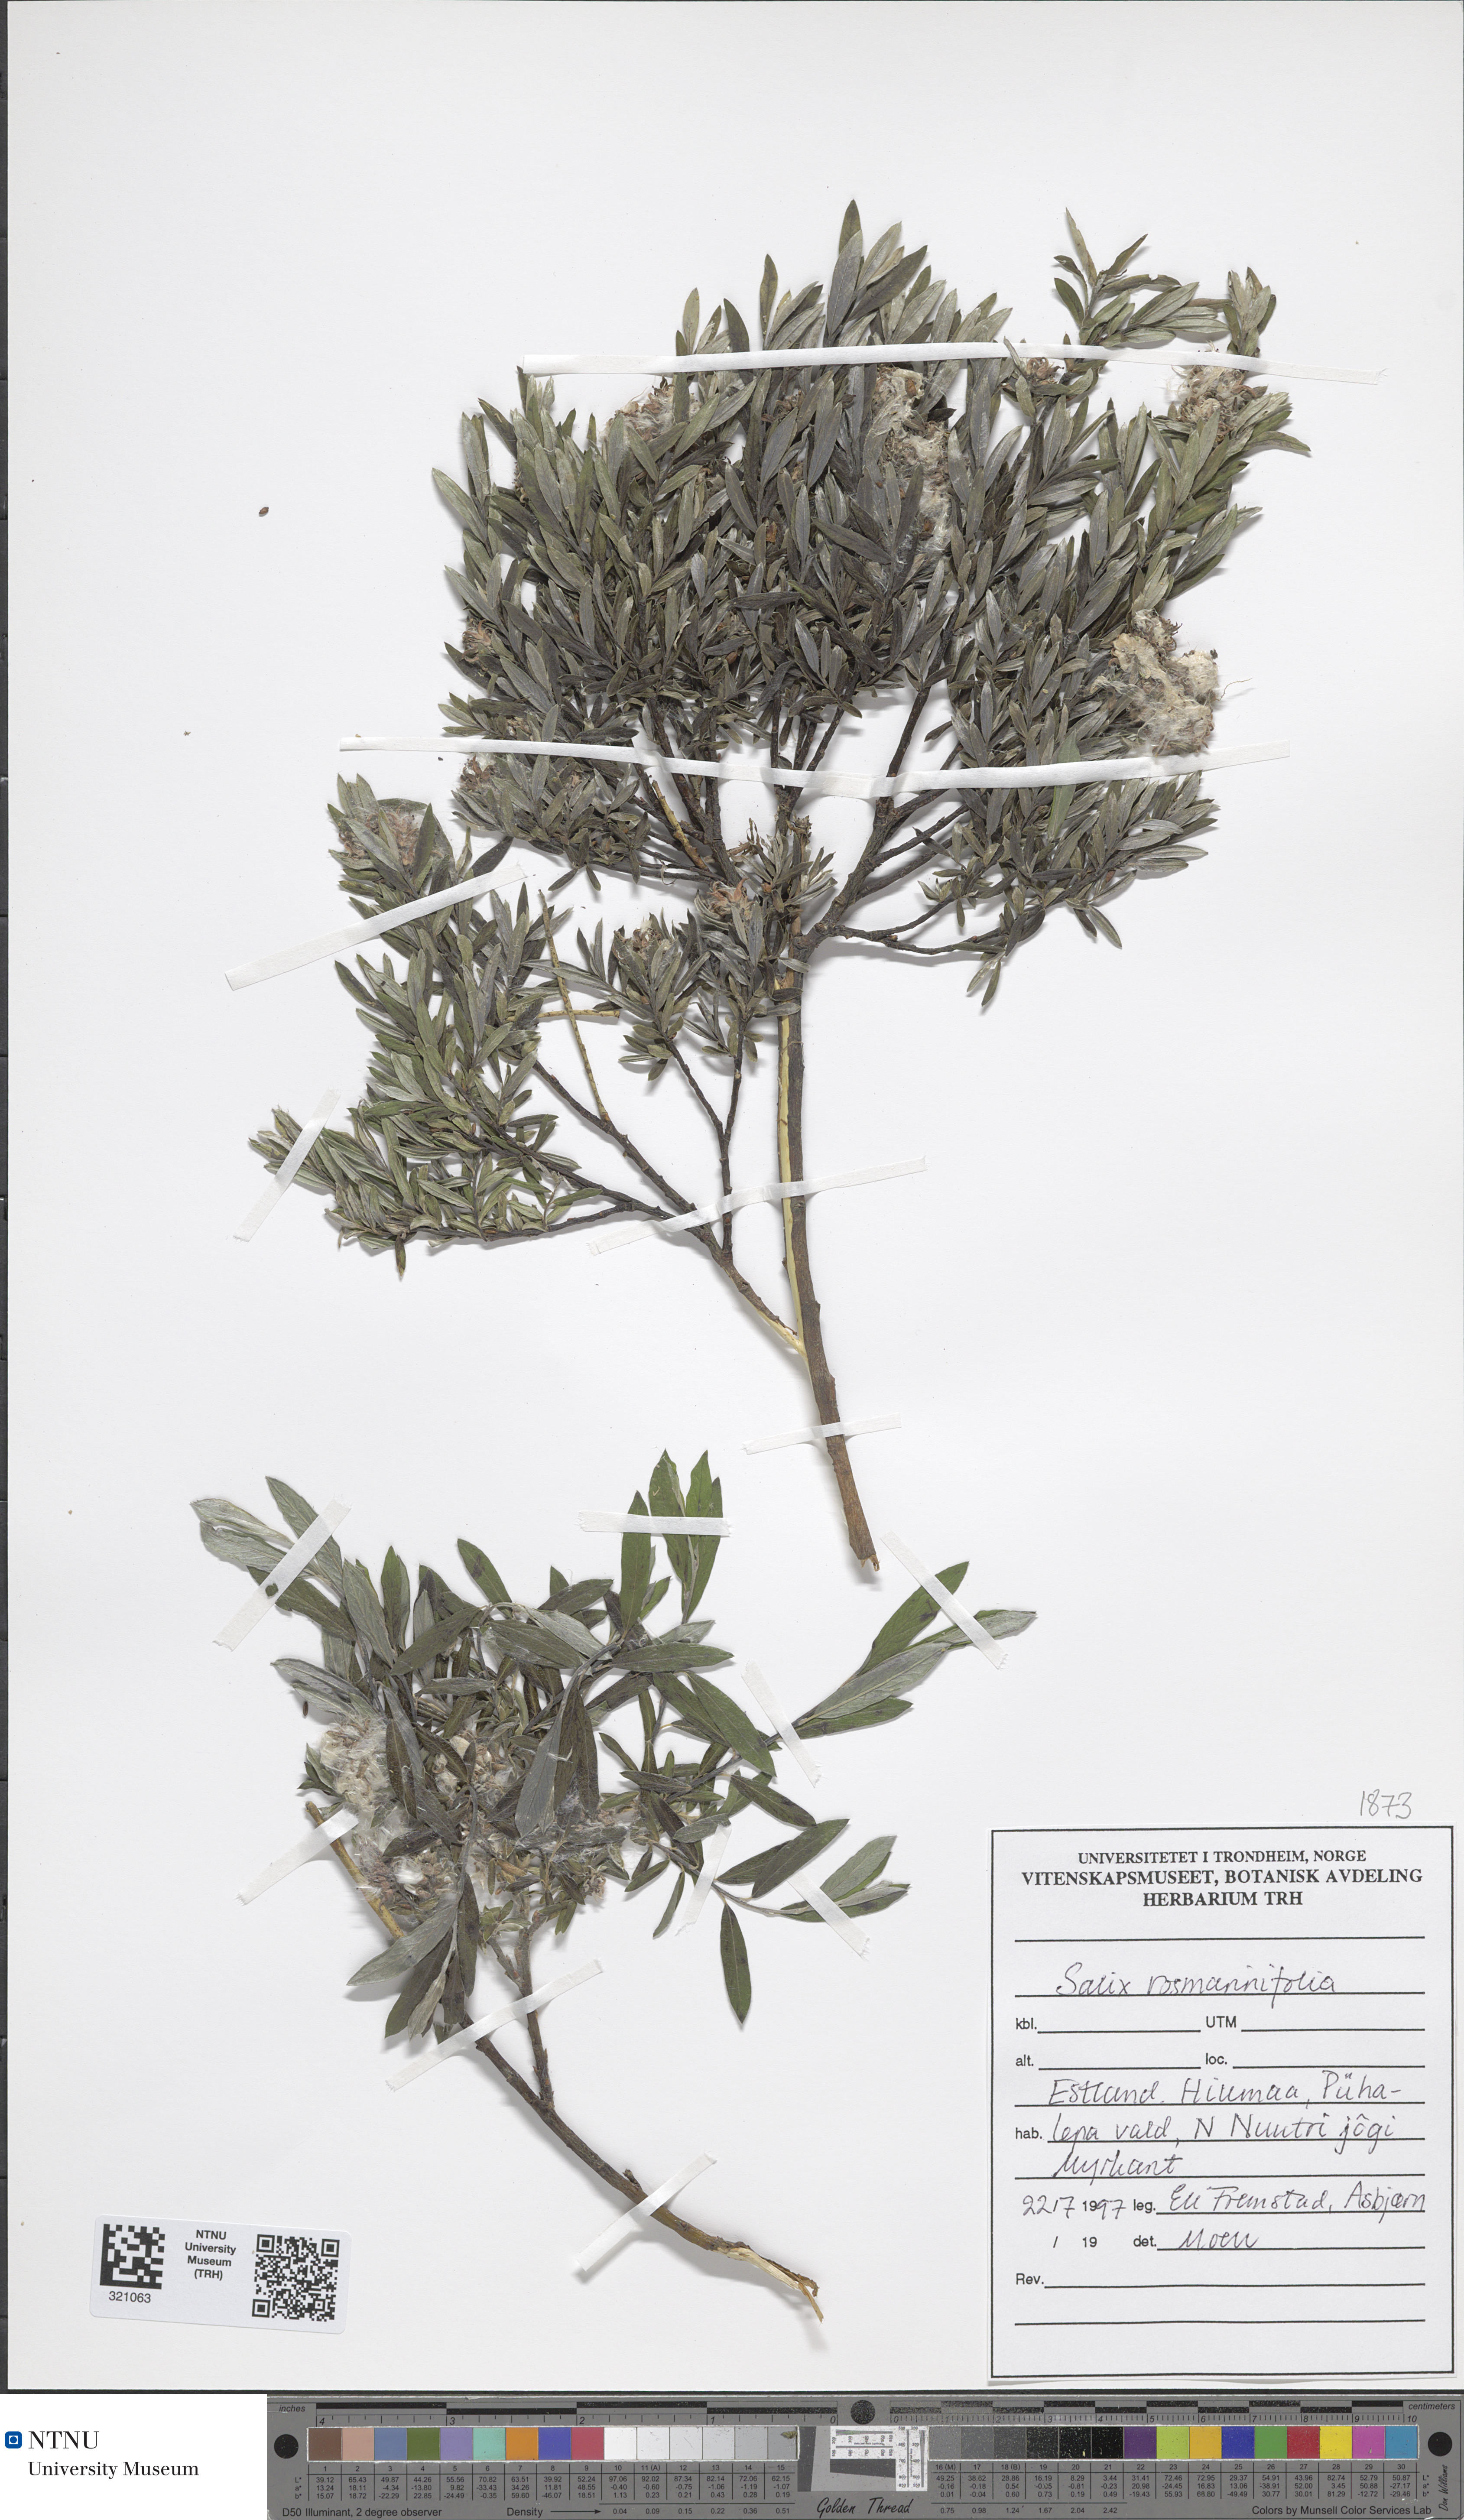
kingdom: Plantae
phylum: Tracheophyta
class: Magnoliopsida
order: Malpighiales
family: Salicaceae
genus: Salix
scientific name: Salix rosmarinifolia
